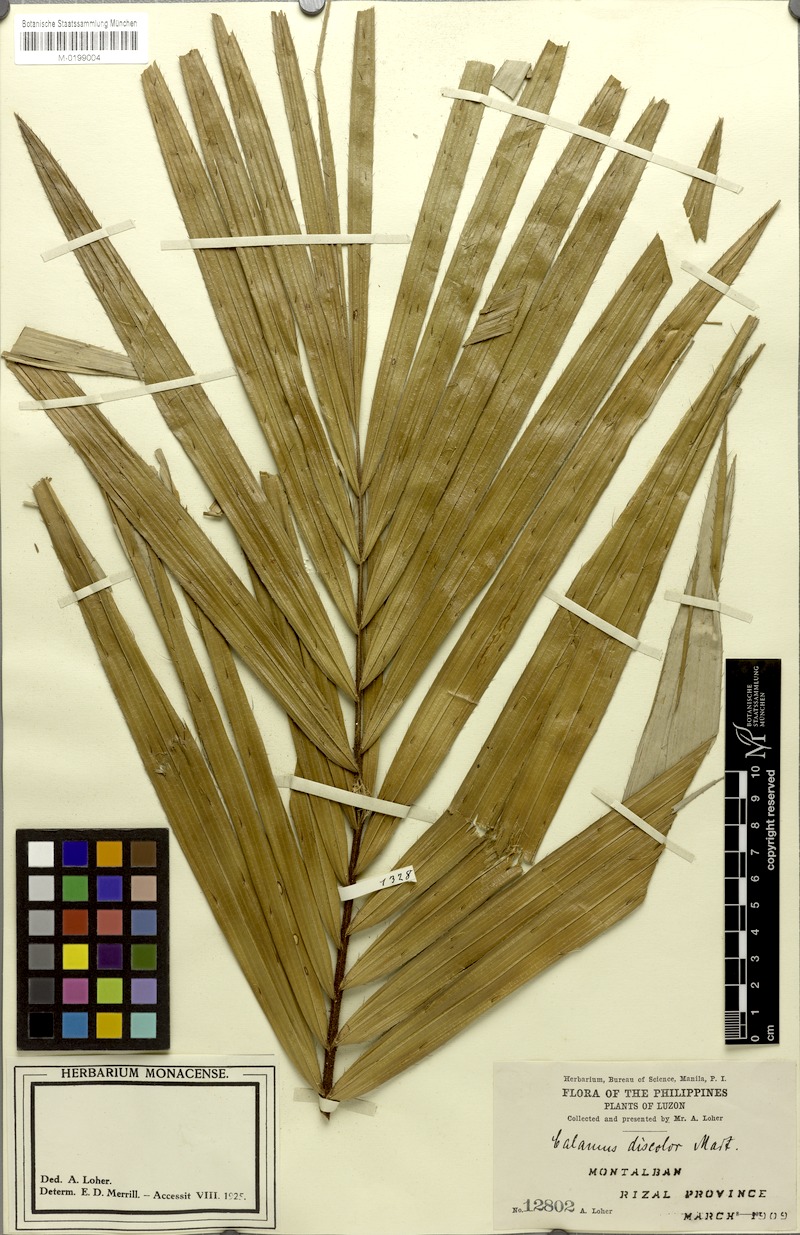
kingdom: Plantae
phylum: Tracheophyta
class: Liliopsida
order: Arecales
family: Arecaceae
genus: Calamus
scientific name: Calamus discolor
